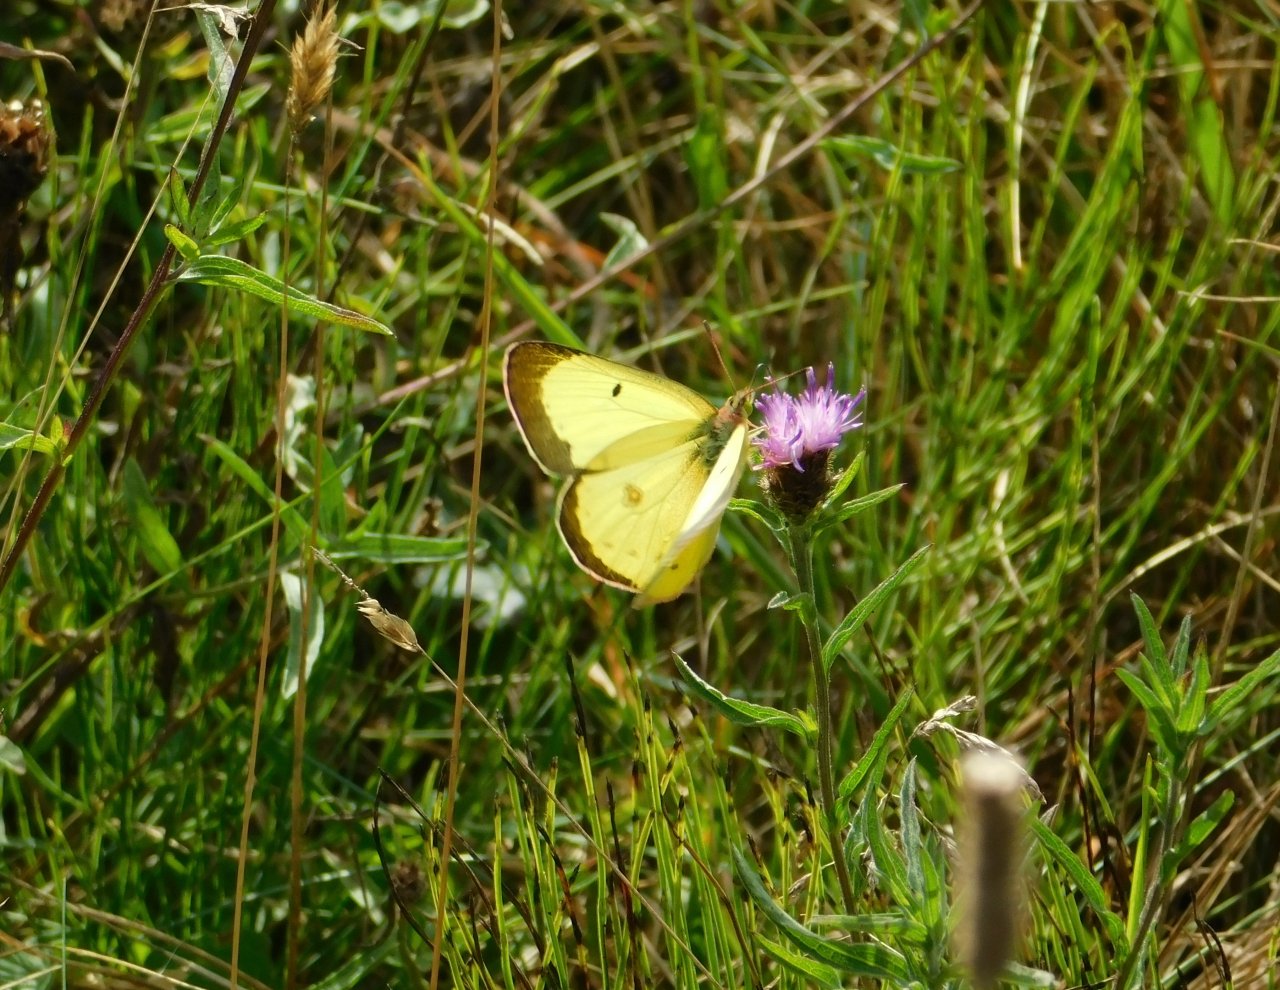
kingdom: Animalia
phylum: Arthropoda
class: Insecta
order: Lepidoptera
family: Pieridae
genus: Colias
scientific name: Colias philodice
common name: Clouded Sulphur
